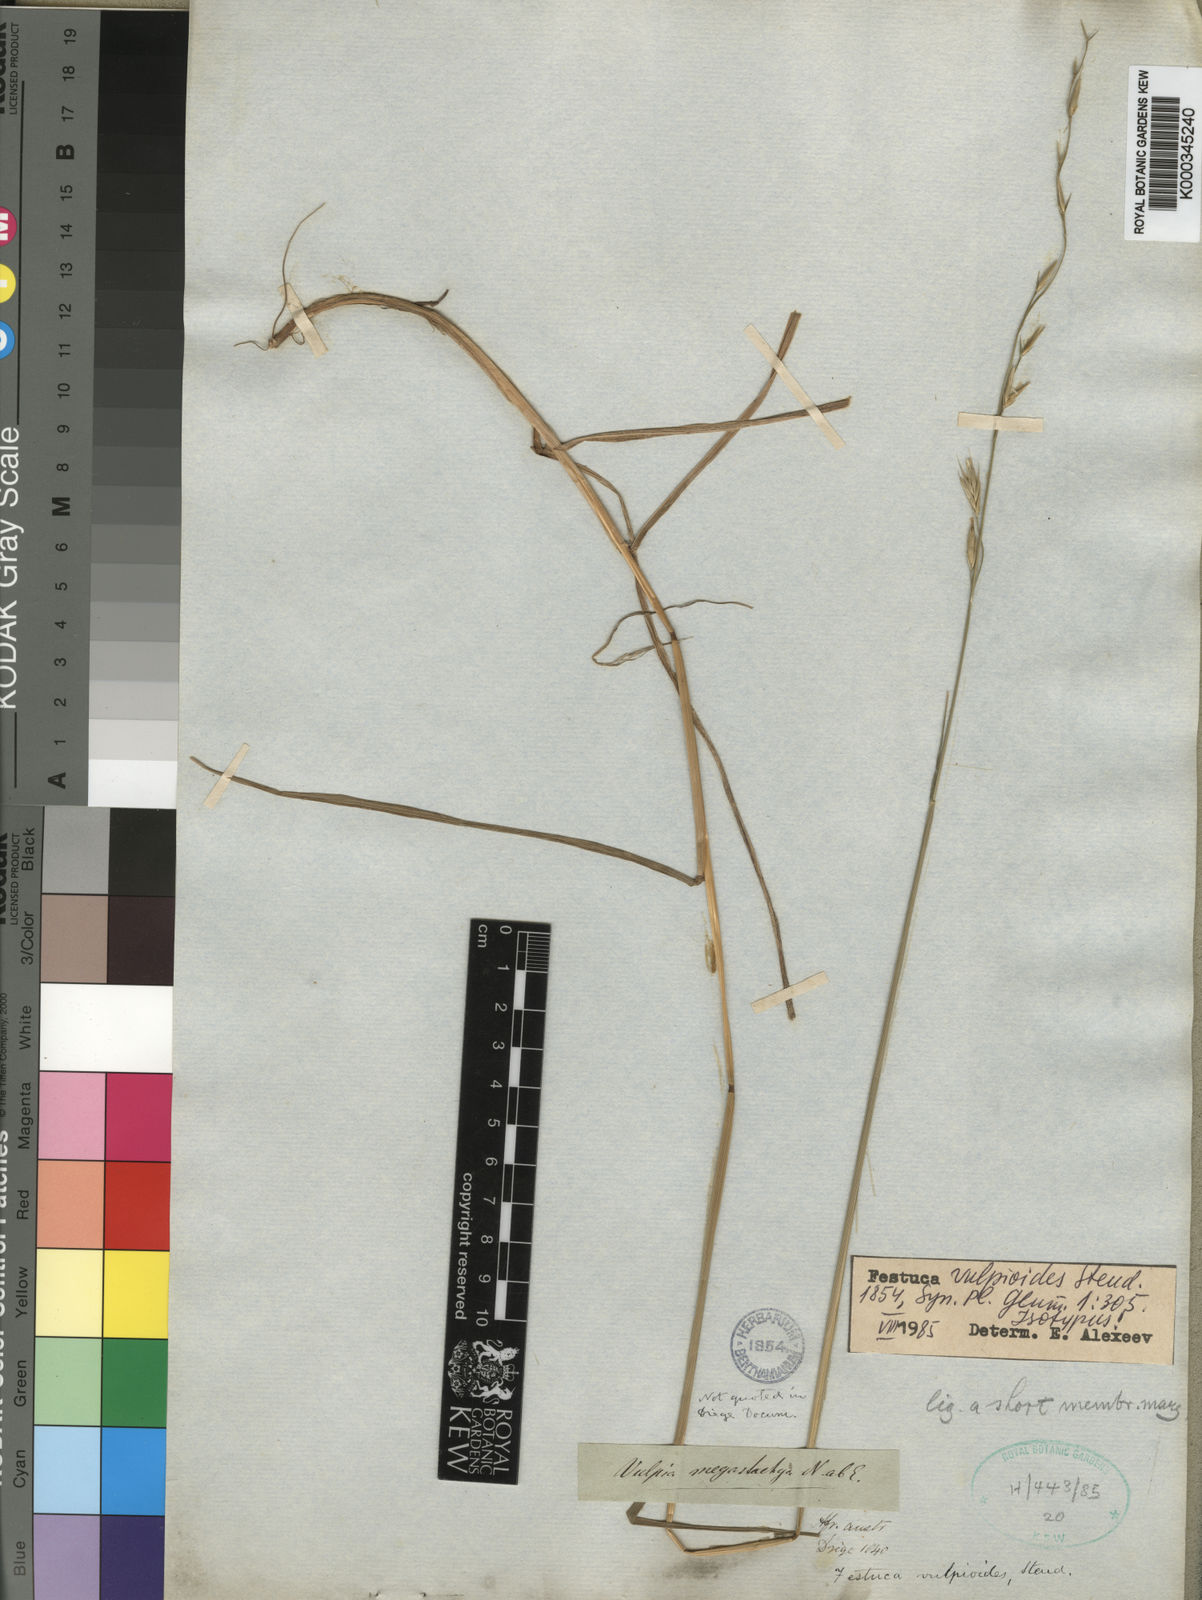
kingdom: Plantae
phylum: Tracheophyta
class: Liliopsida
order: Poales
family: Poaceae
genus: Festuca
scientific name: Festuca vulpioides
